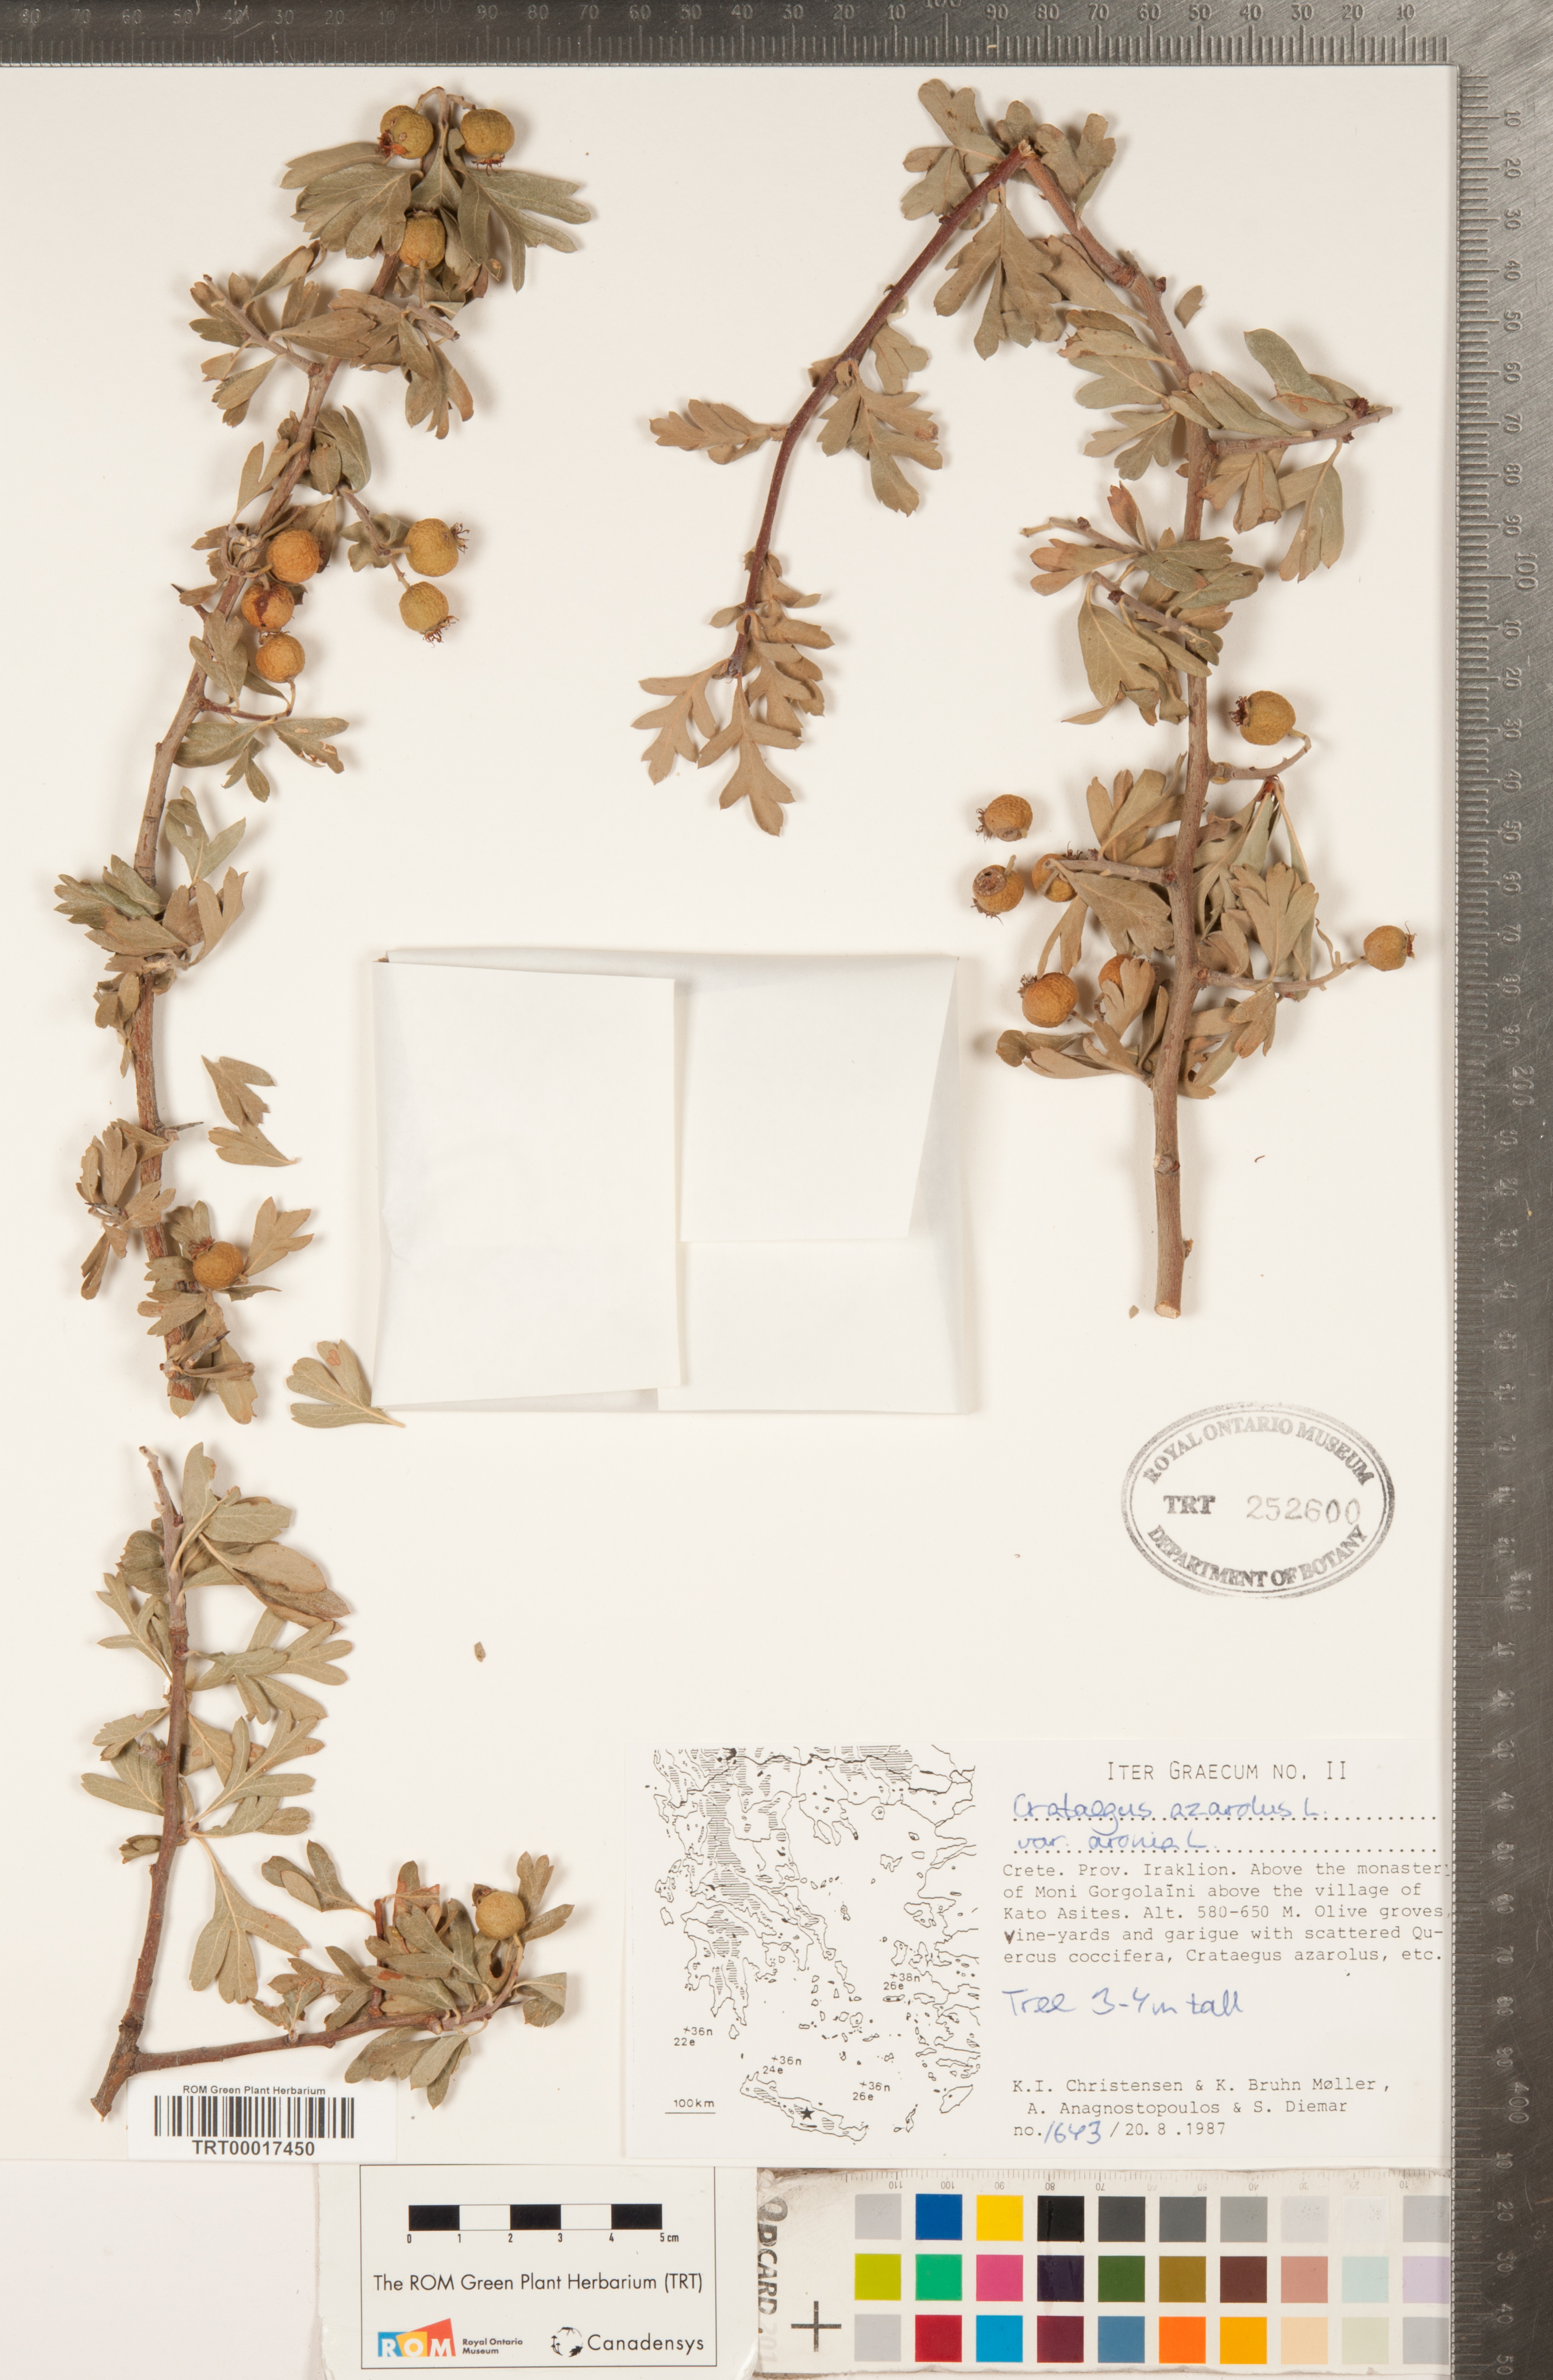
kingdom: Plantae
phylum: Tracheophyta
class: Magnoliopsida
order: Rosales
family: Rosaceae
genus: Crataegus
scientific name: Crataegus azarolus
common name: Azarole
